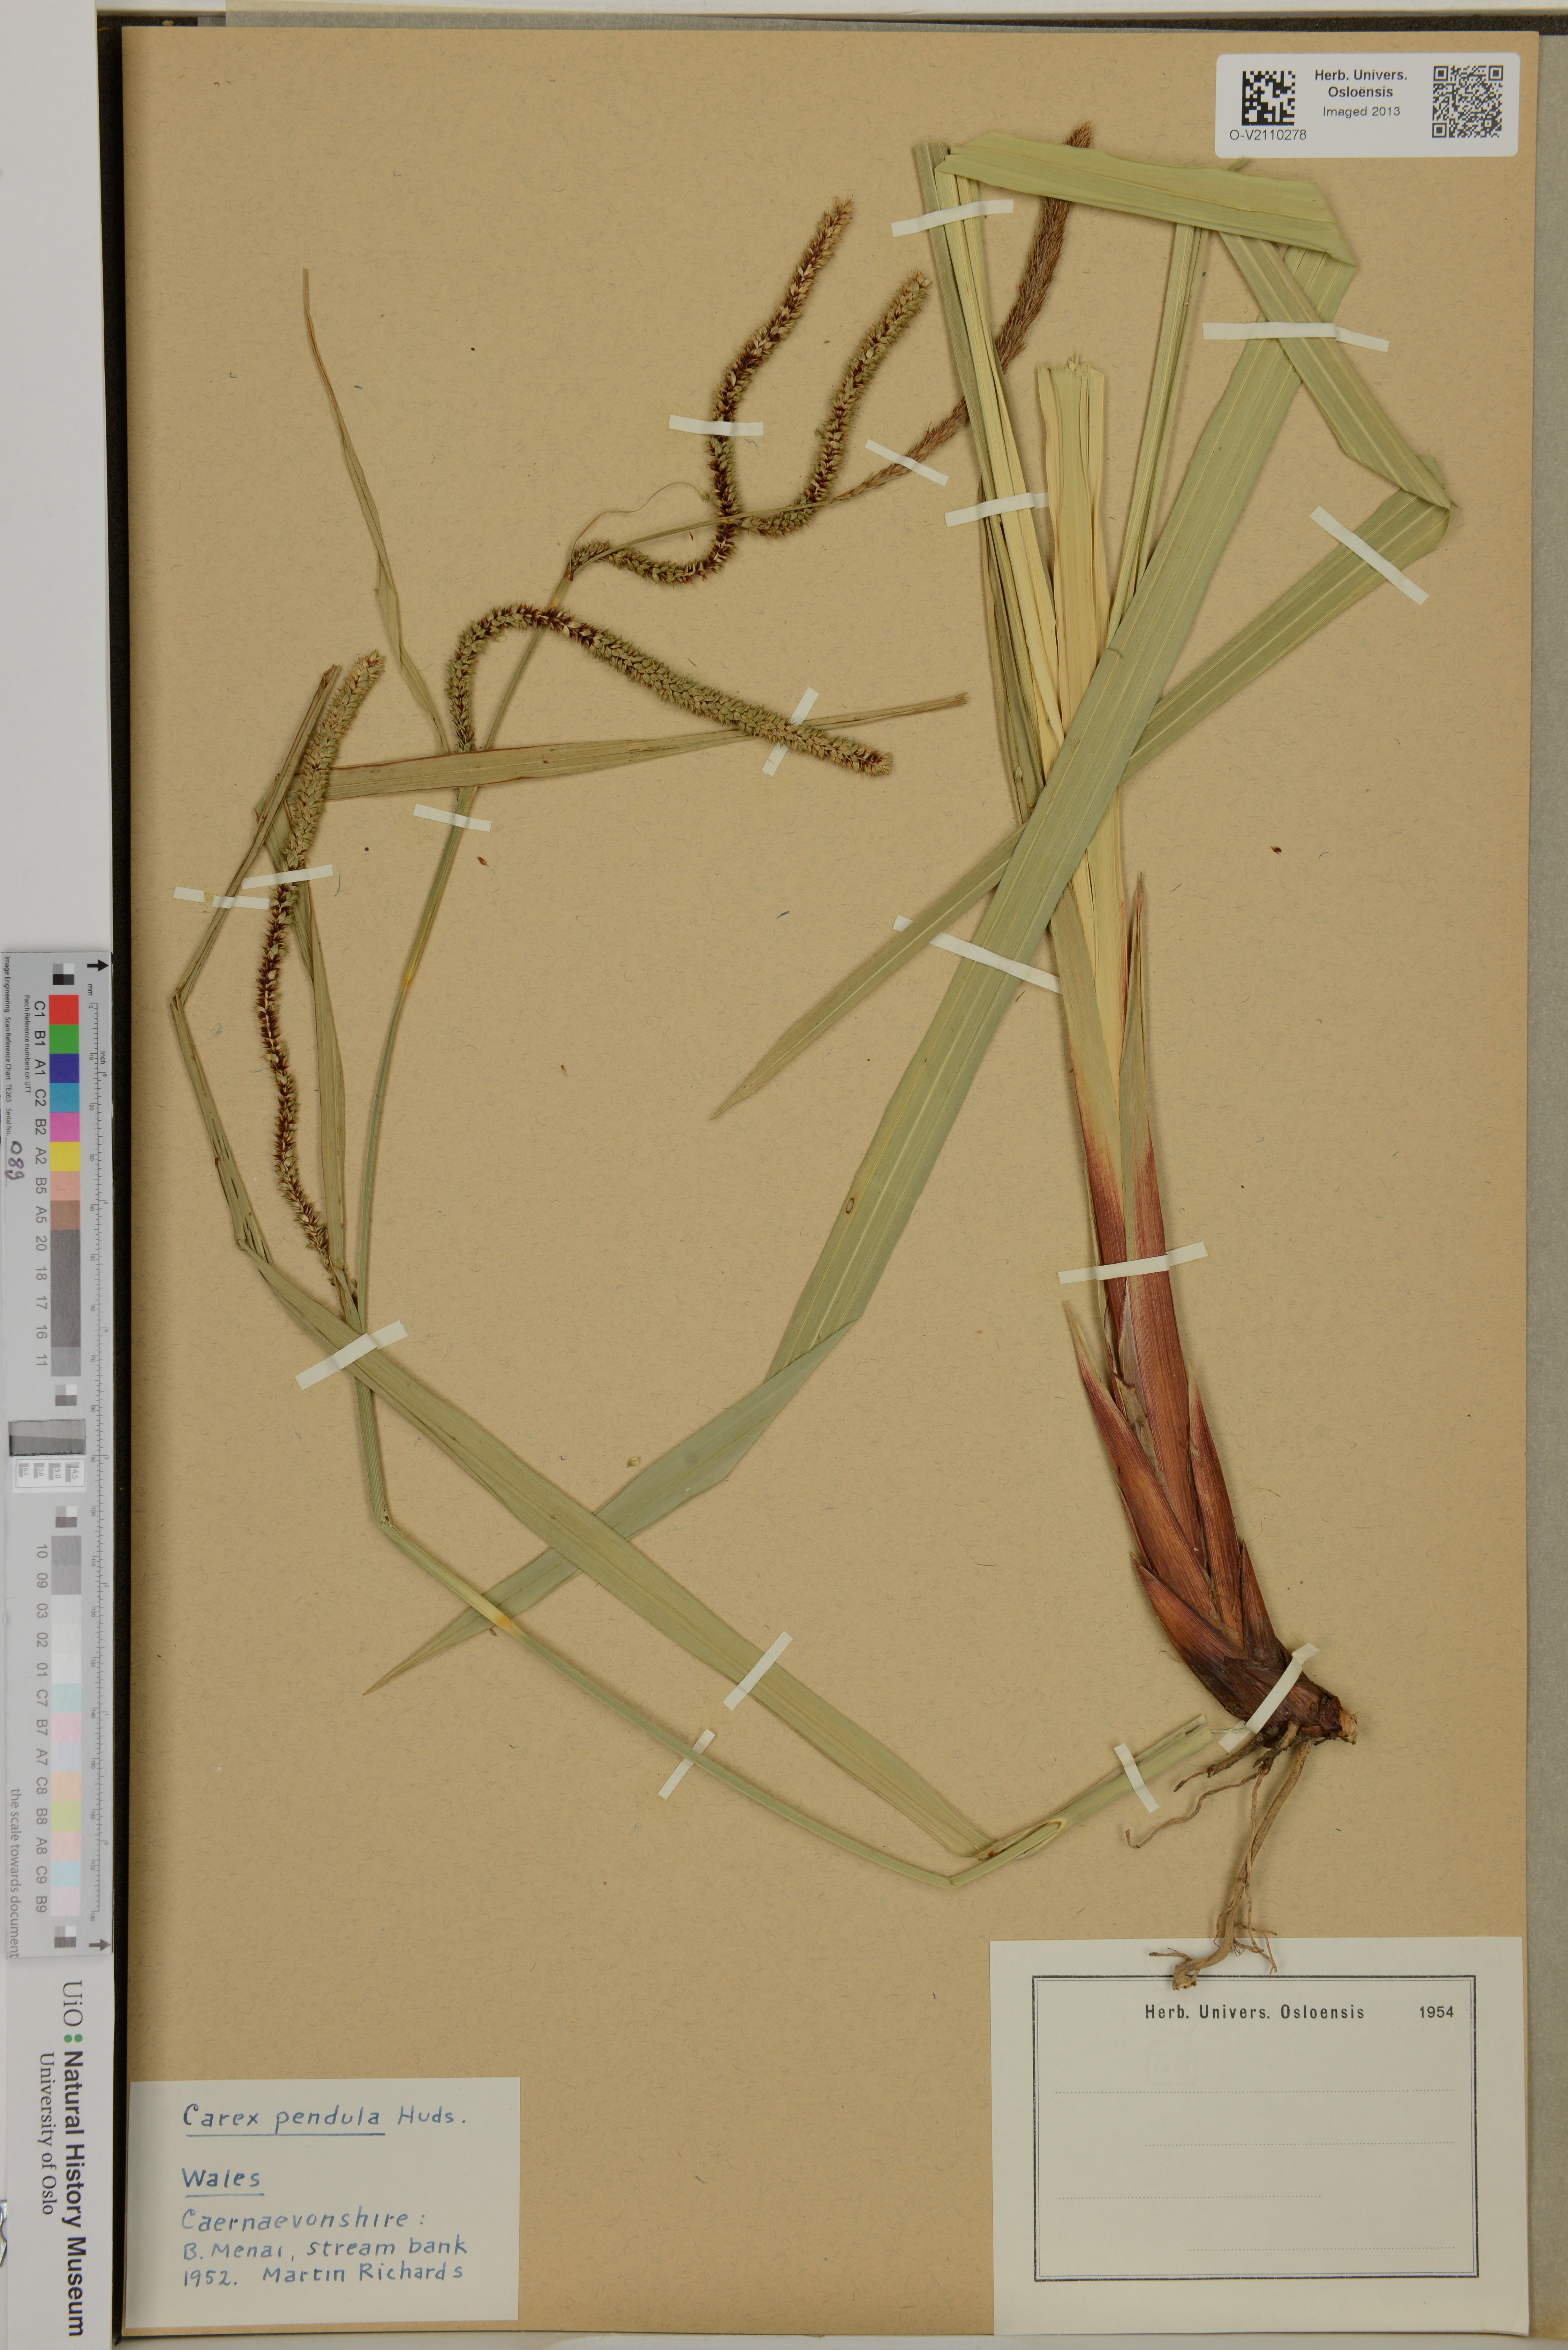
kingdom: Plantae
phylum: Tracheophyta
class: Liliopsida
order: Poales
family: Cyperaceae
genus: Carex
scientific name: Carex pendula
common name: Pendulous sedge
